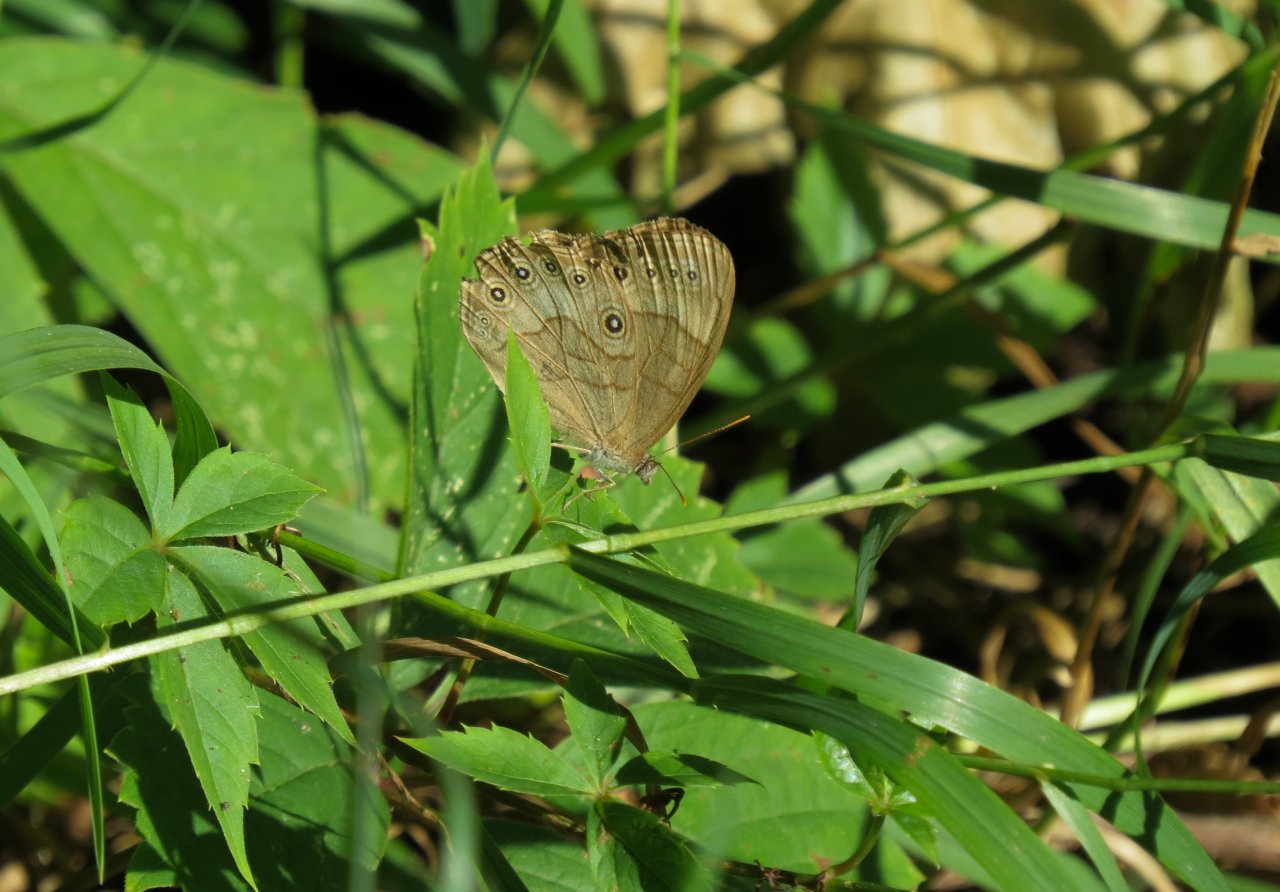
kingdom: Animalia
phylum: Arthropoda
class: Insecta
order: Lepidoptera
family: Nymphalidae
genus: Lethe
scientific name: Lethe eurydice
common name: Eyed Brown
